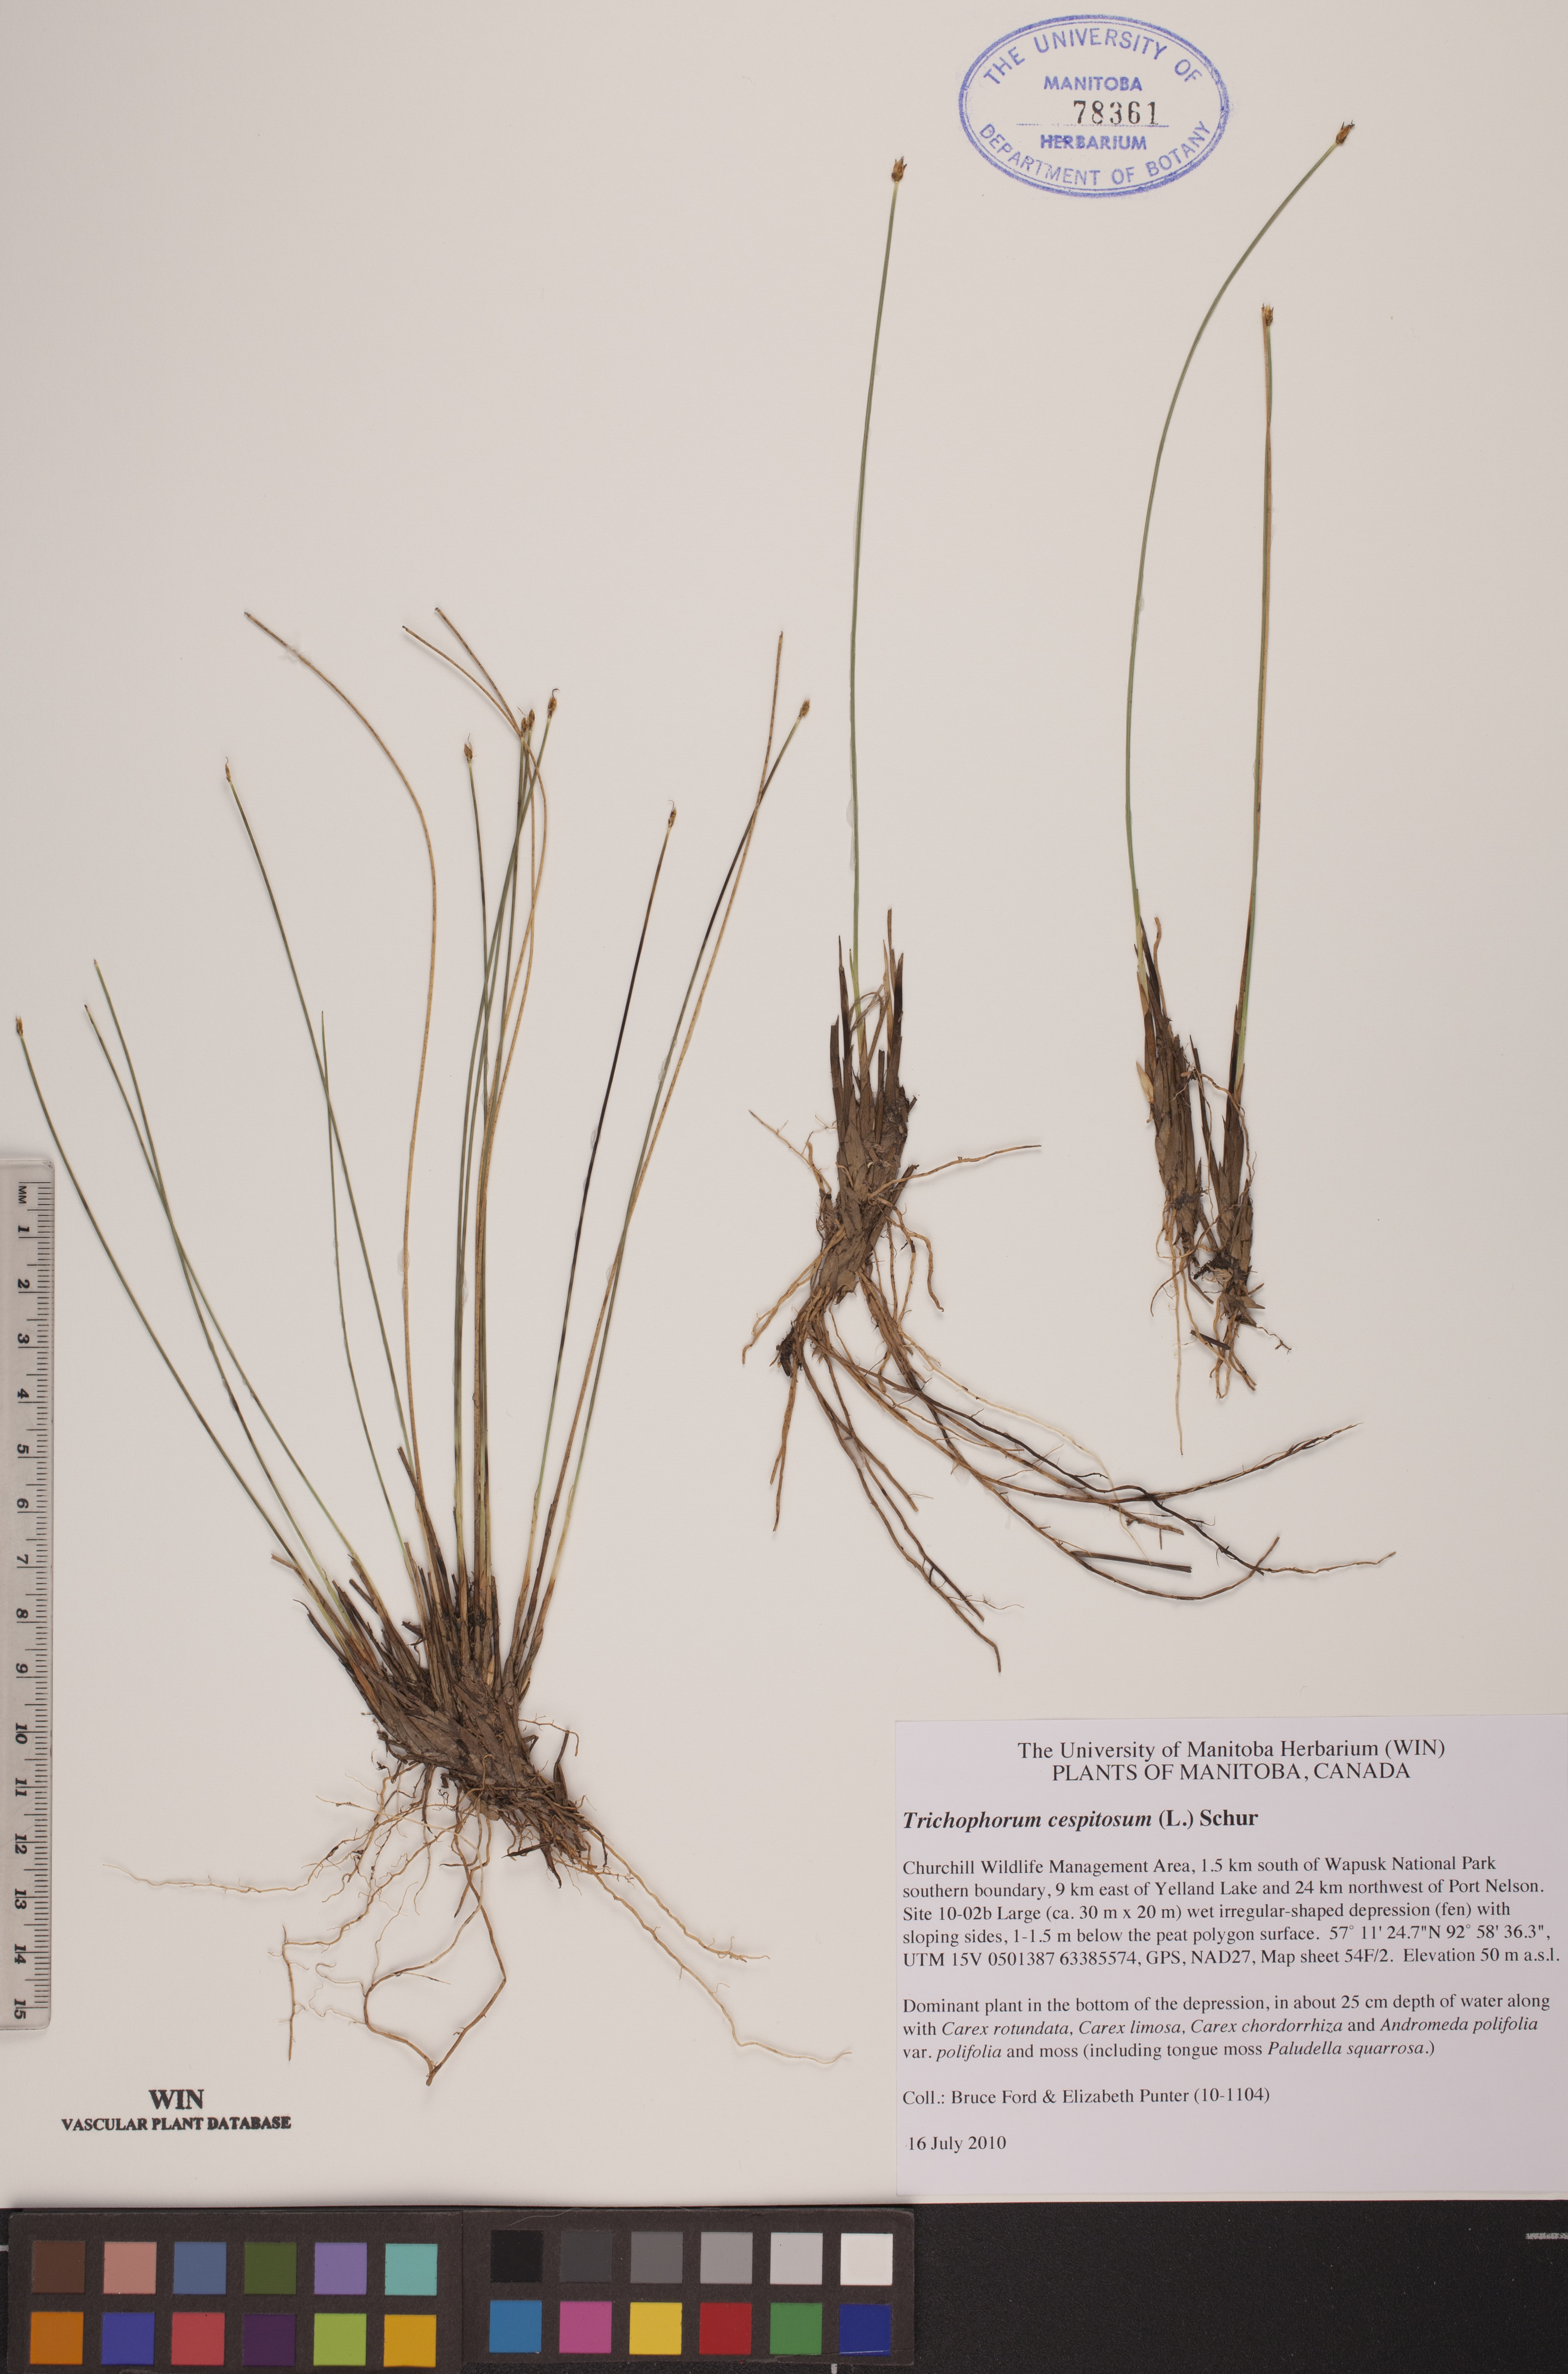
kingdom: Plantae
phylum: Tracheophyta
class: Liliopsida
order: Poales
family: Cyperaceae
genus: Trichophorum
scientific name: Trichophorum cespitosum
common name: Cespitose bulrush
